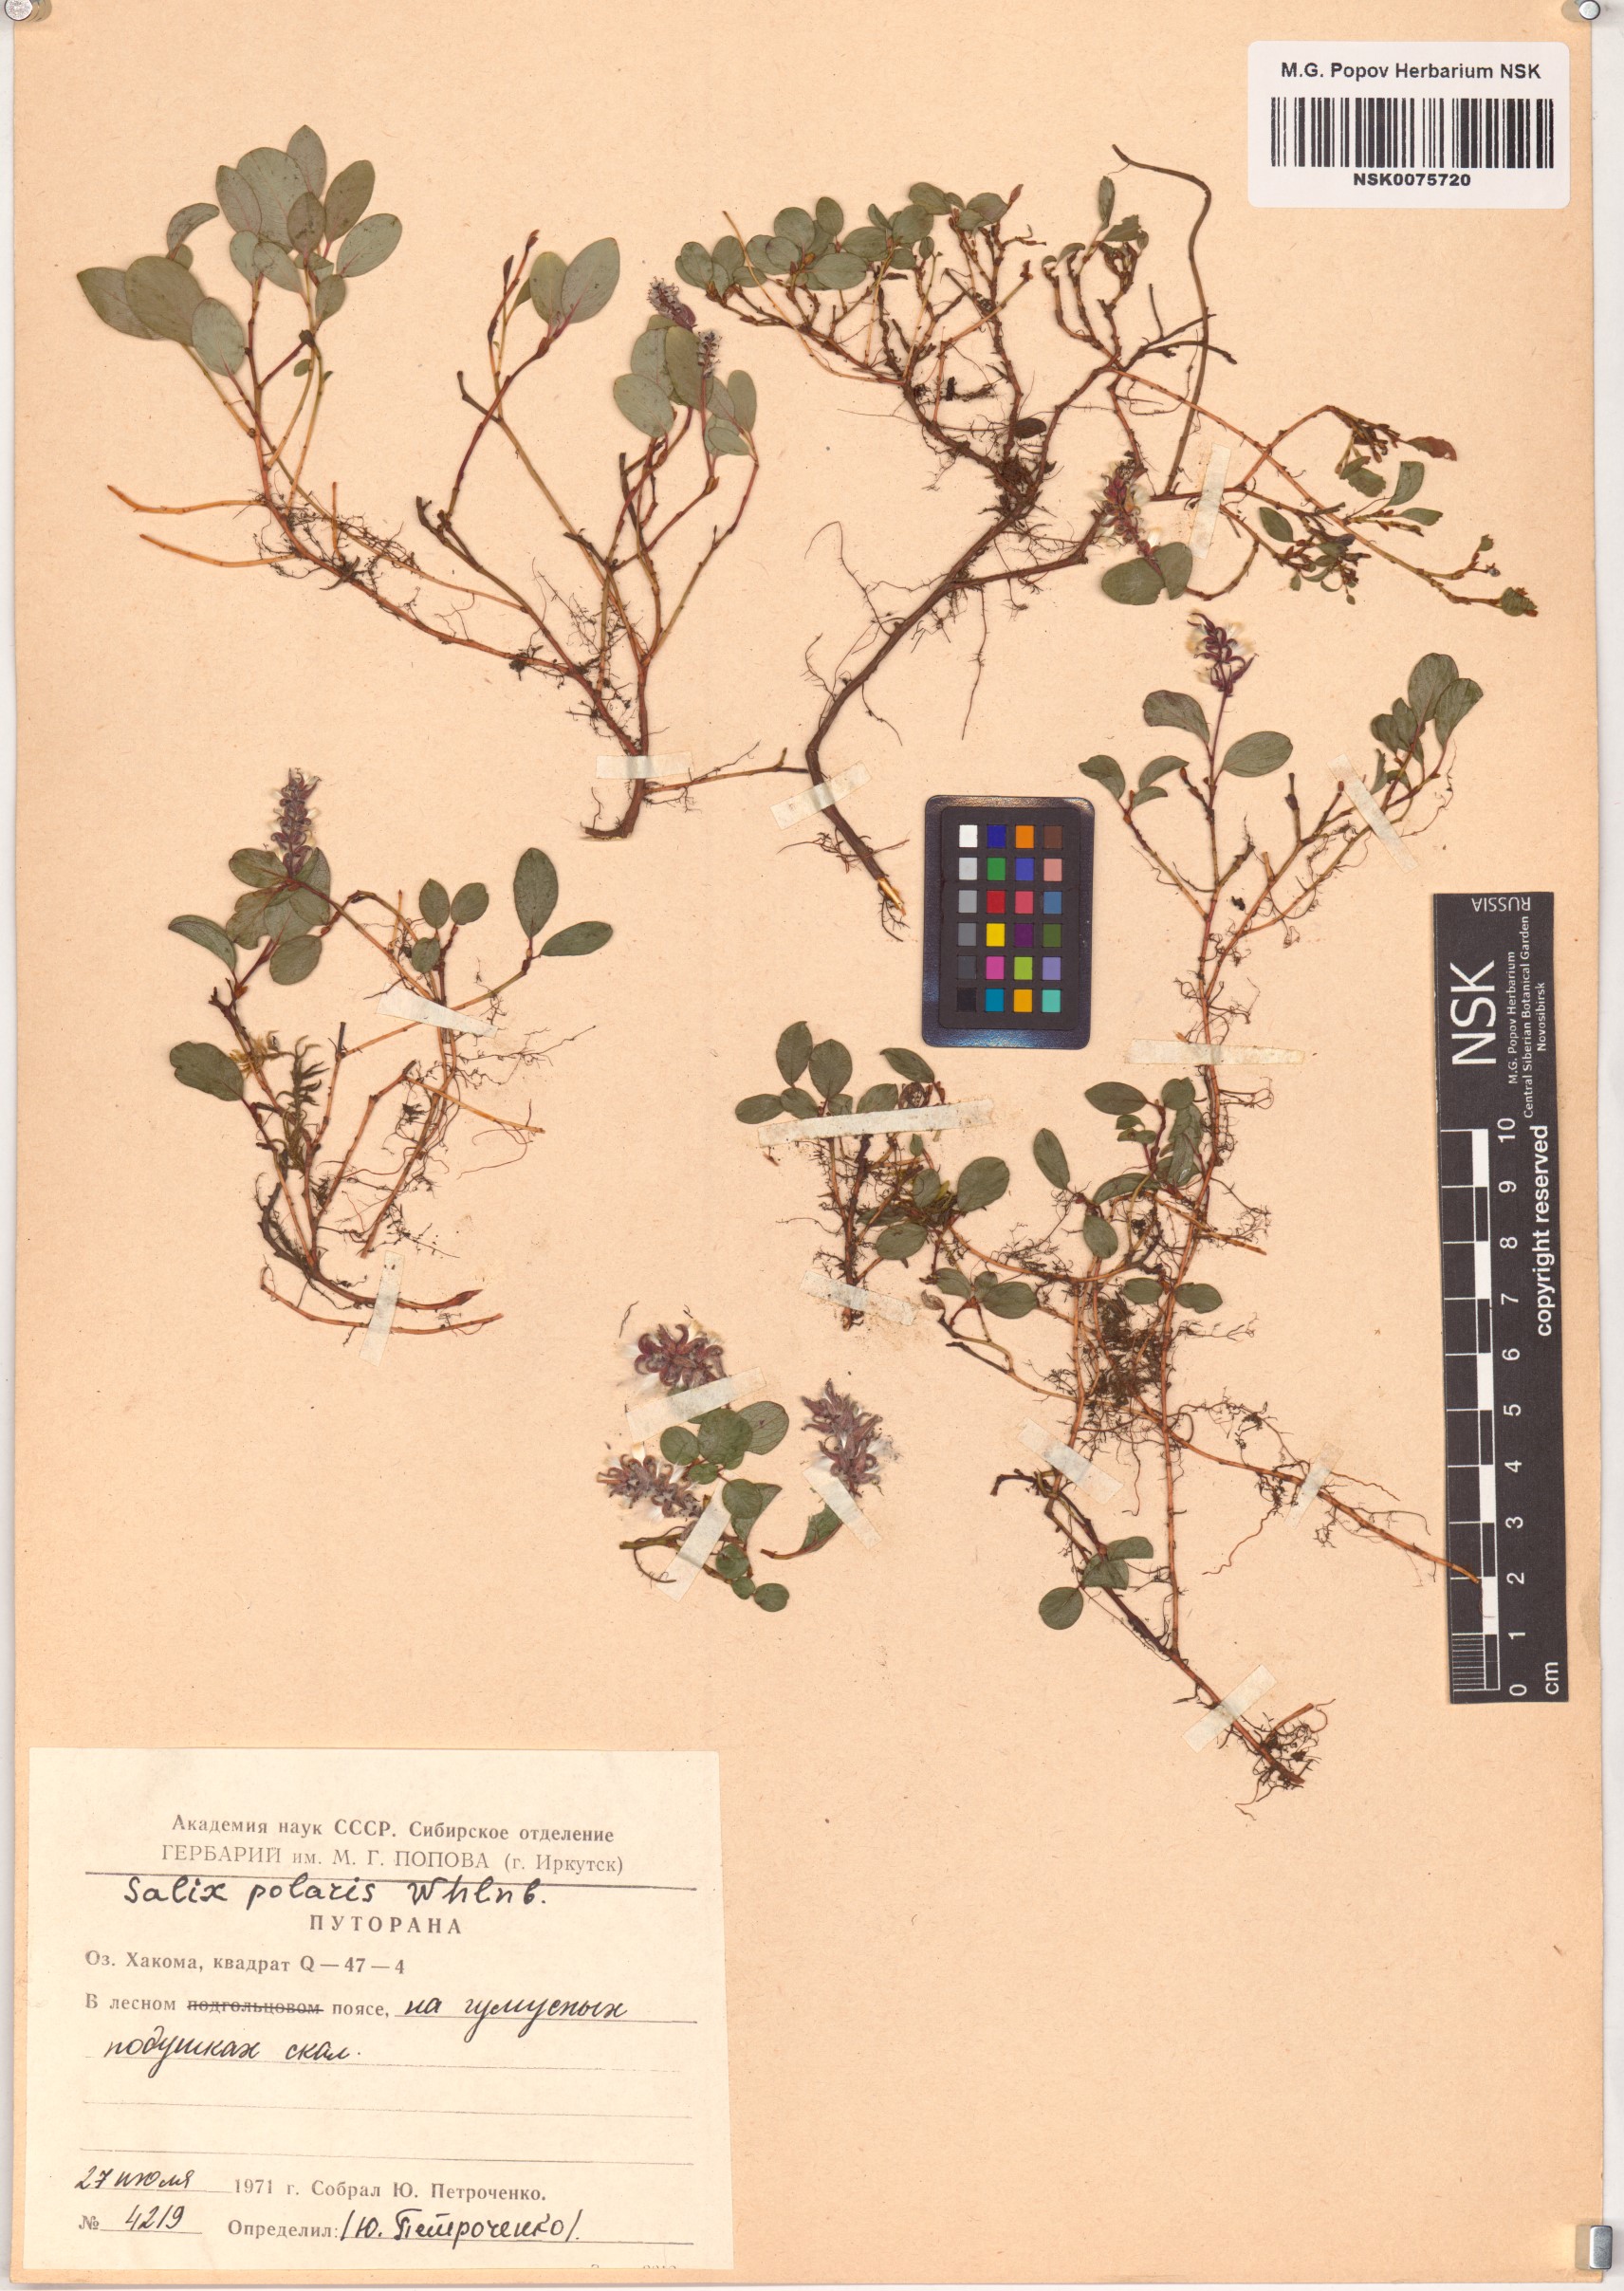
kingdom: Plantae
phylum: Tracheophyta
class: Magnoliopsida
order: Malpighiales
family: Salicaceae
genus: Salix
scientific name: Salix polaris
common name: Polar willow
